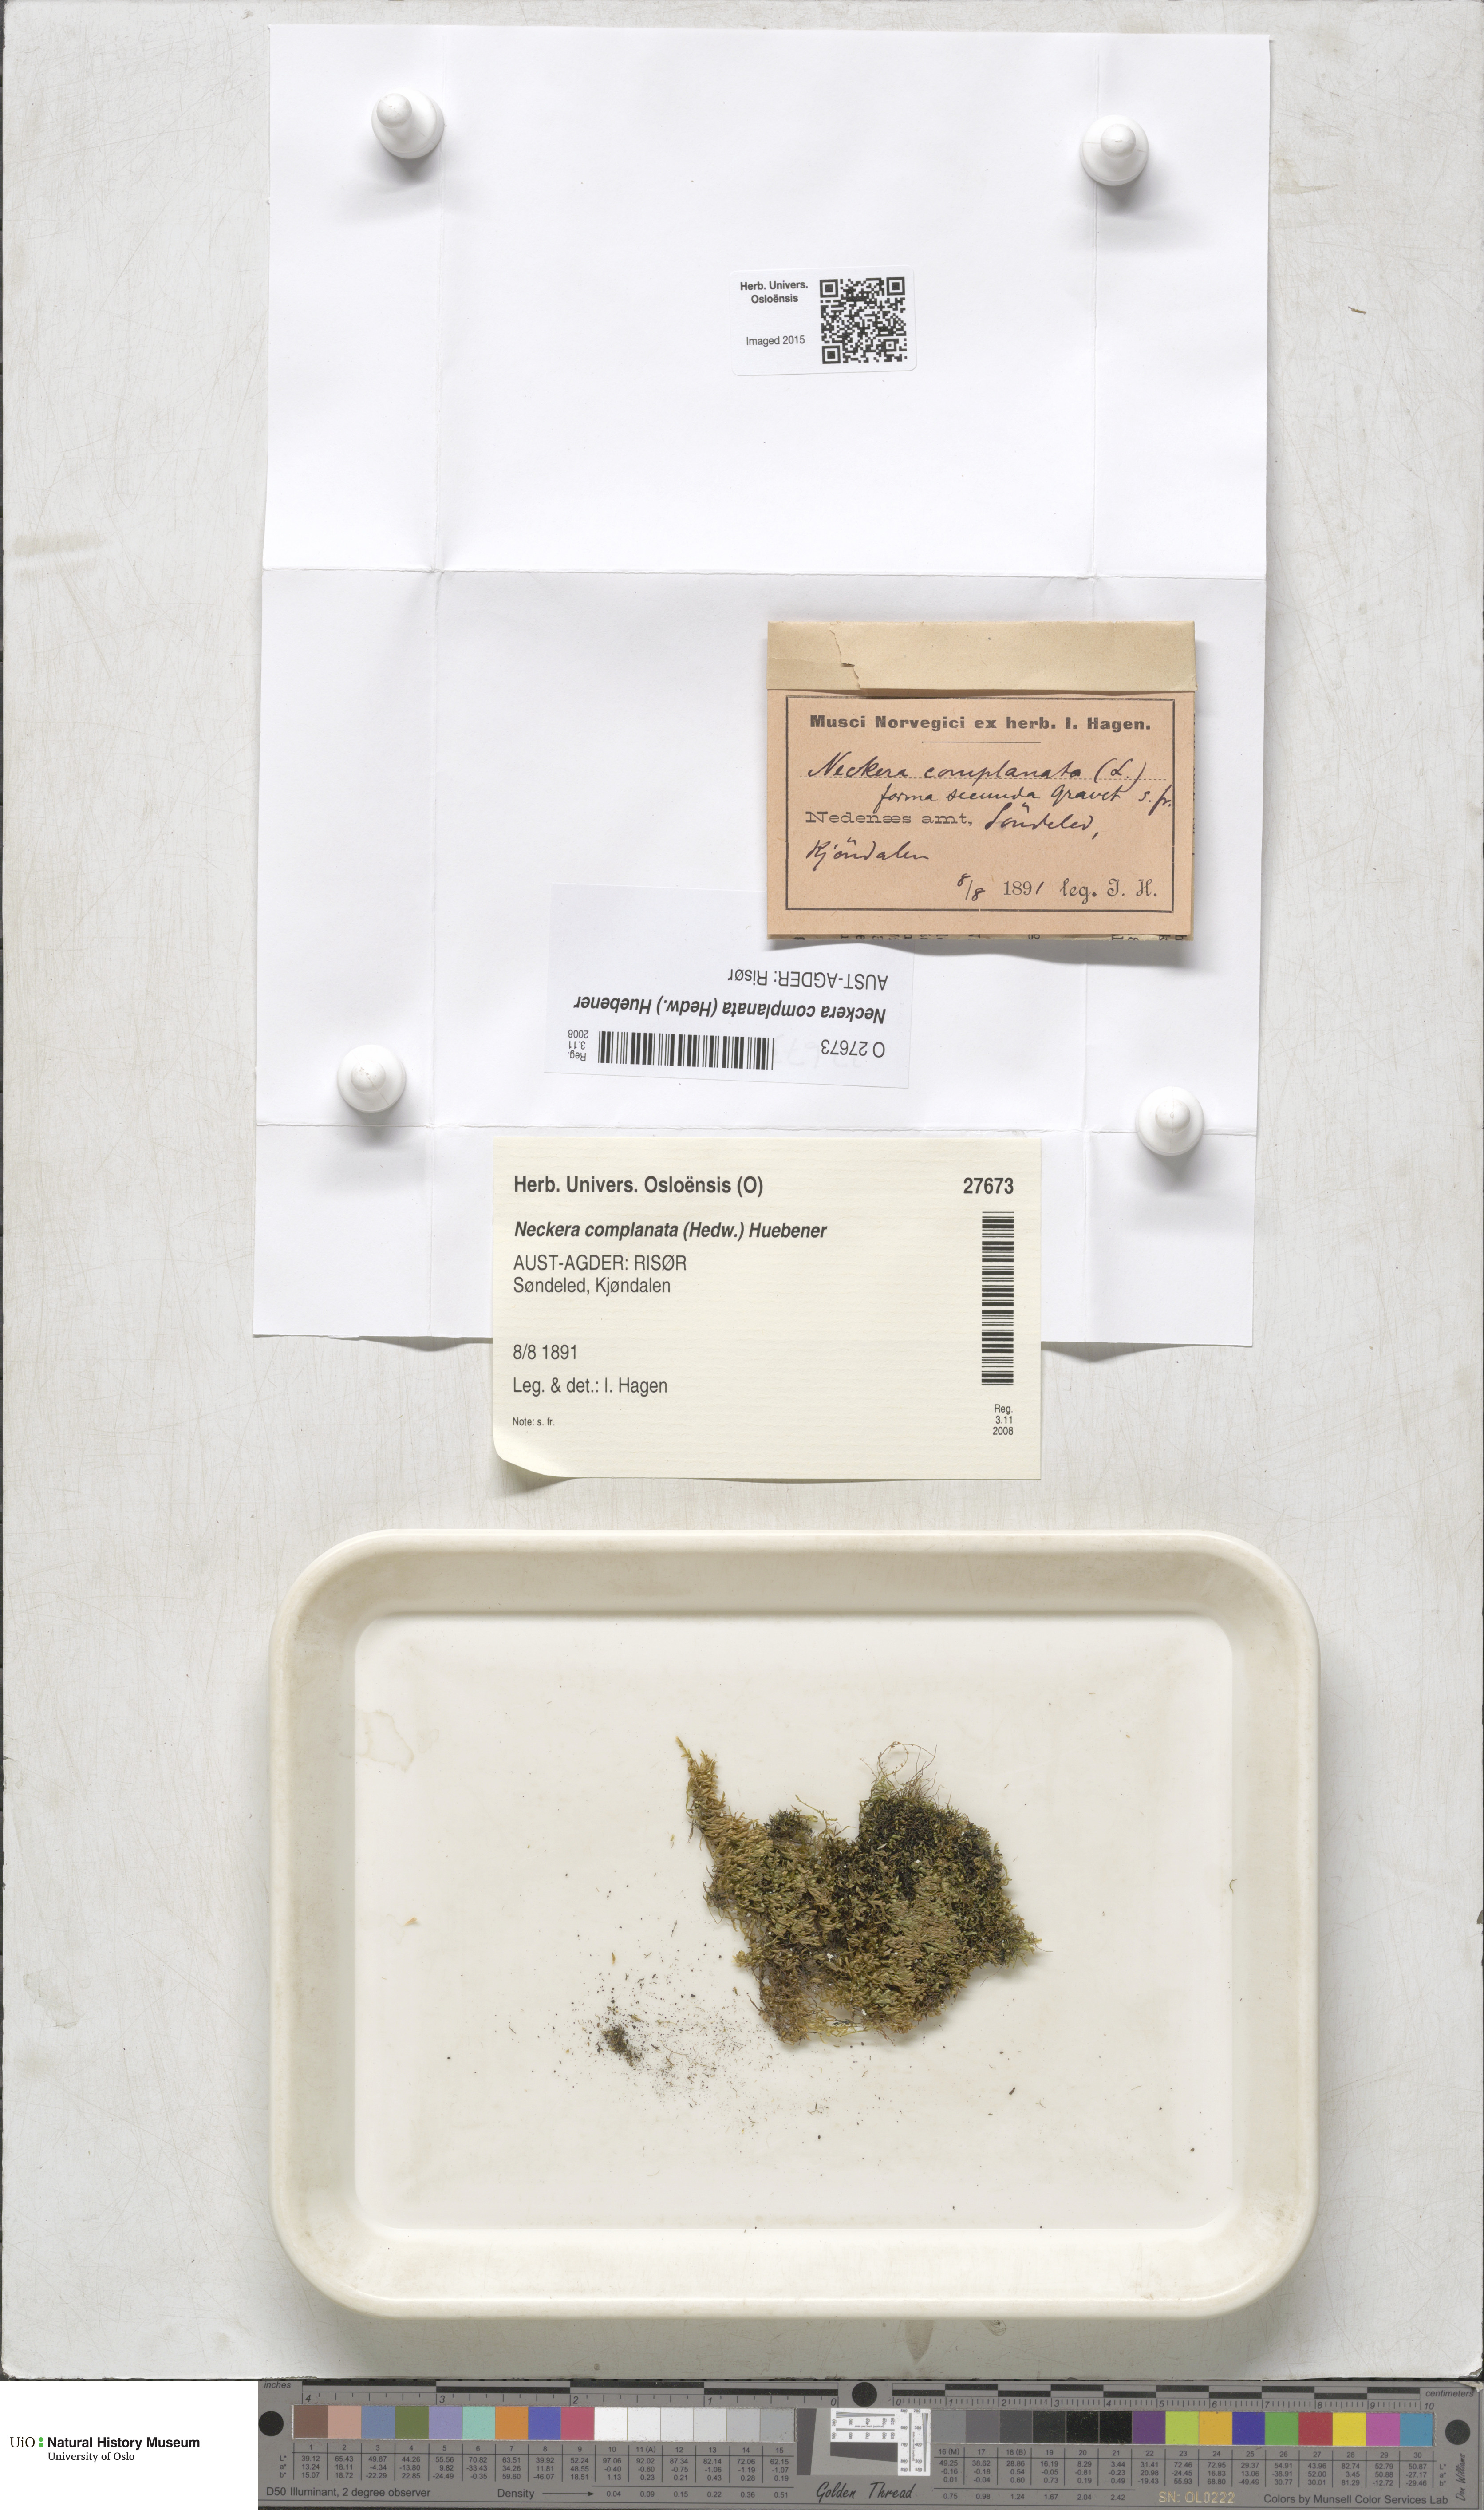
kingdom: Plantae
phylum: Bryophyta
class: Bryopsida
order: Hypnales
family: Neckeraceae
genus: Alleniella
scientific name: Alleniella complanata
